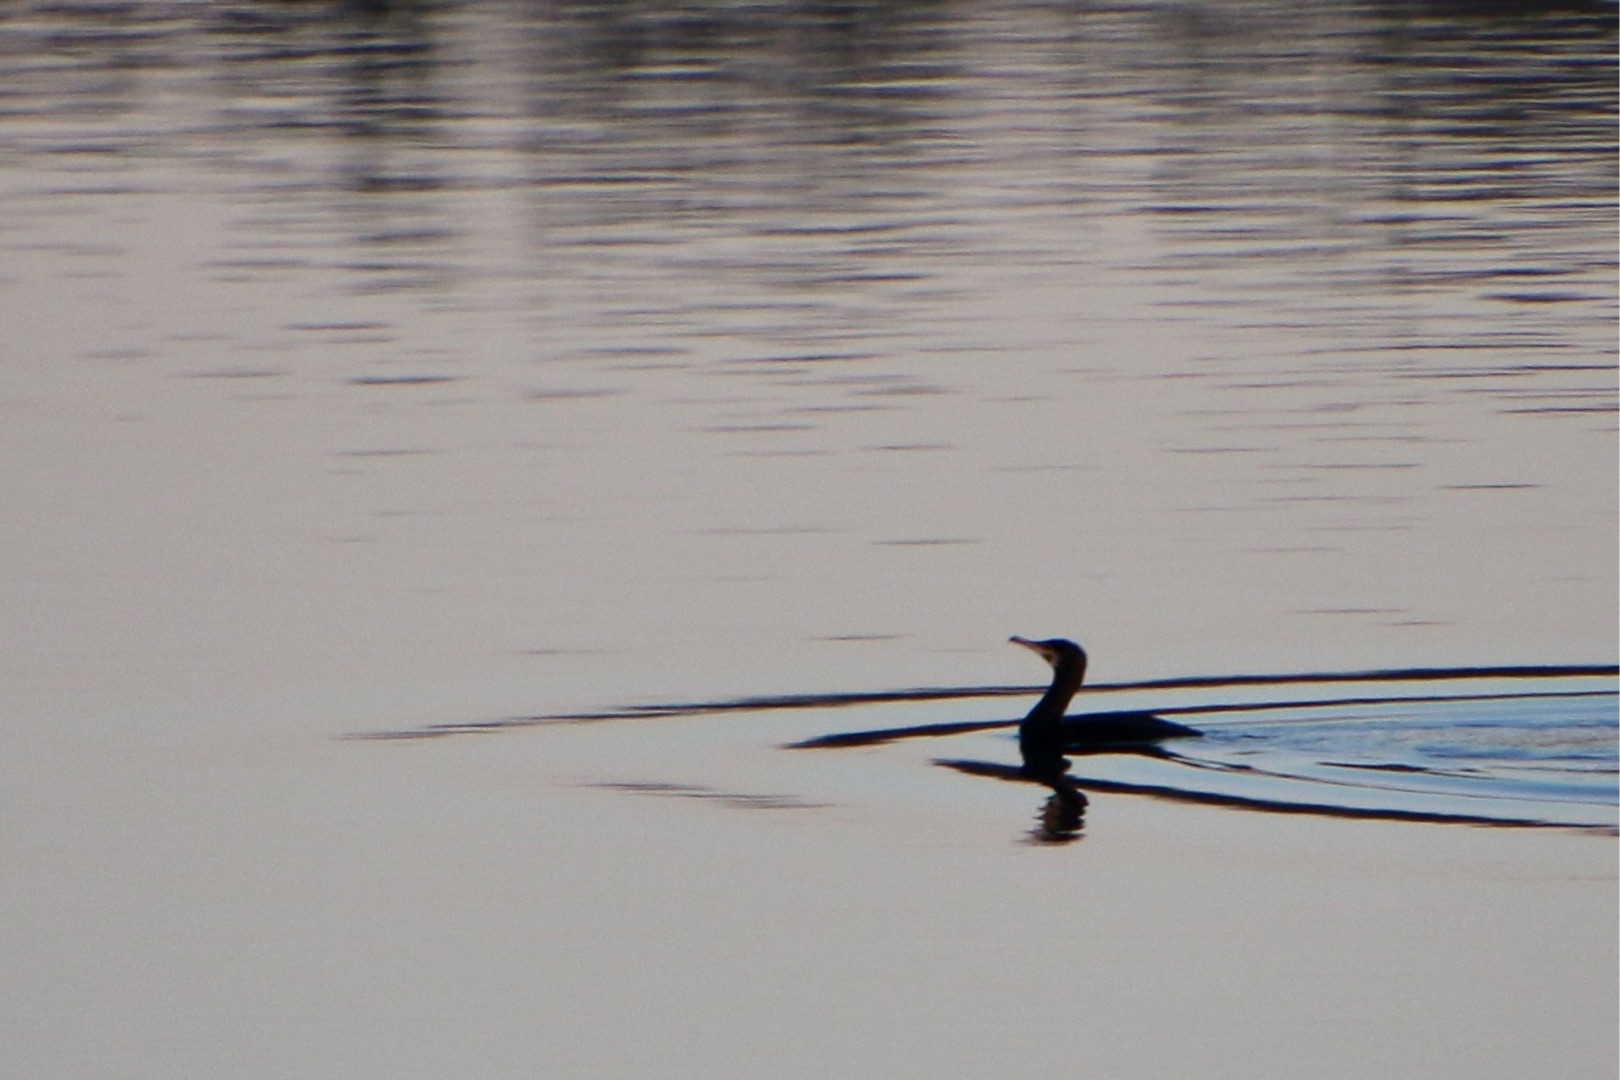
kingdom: Animalia
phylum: Chordata
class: Aves
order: Suliformes
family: Phalacrocoracidae
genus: Phalacrocorax
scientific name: Phalacrocorax carbo
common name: Skarv
